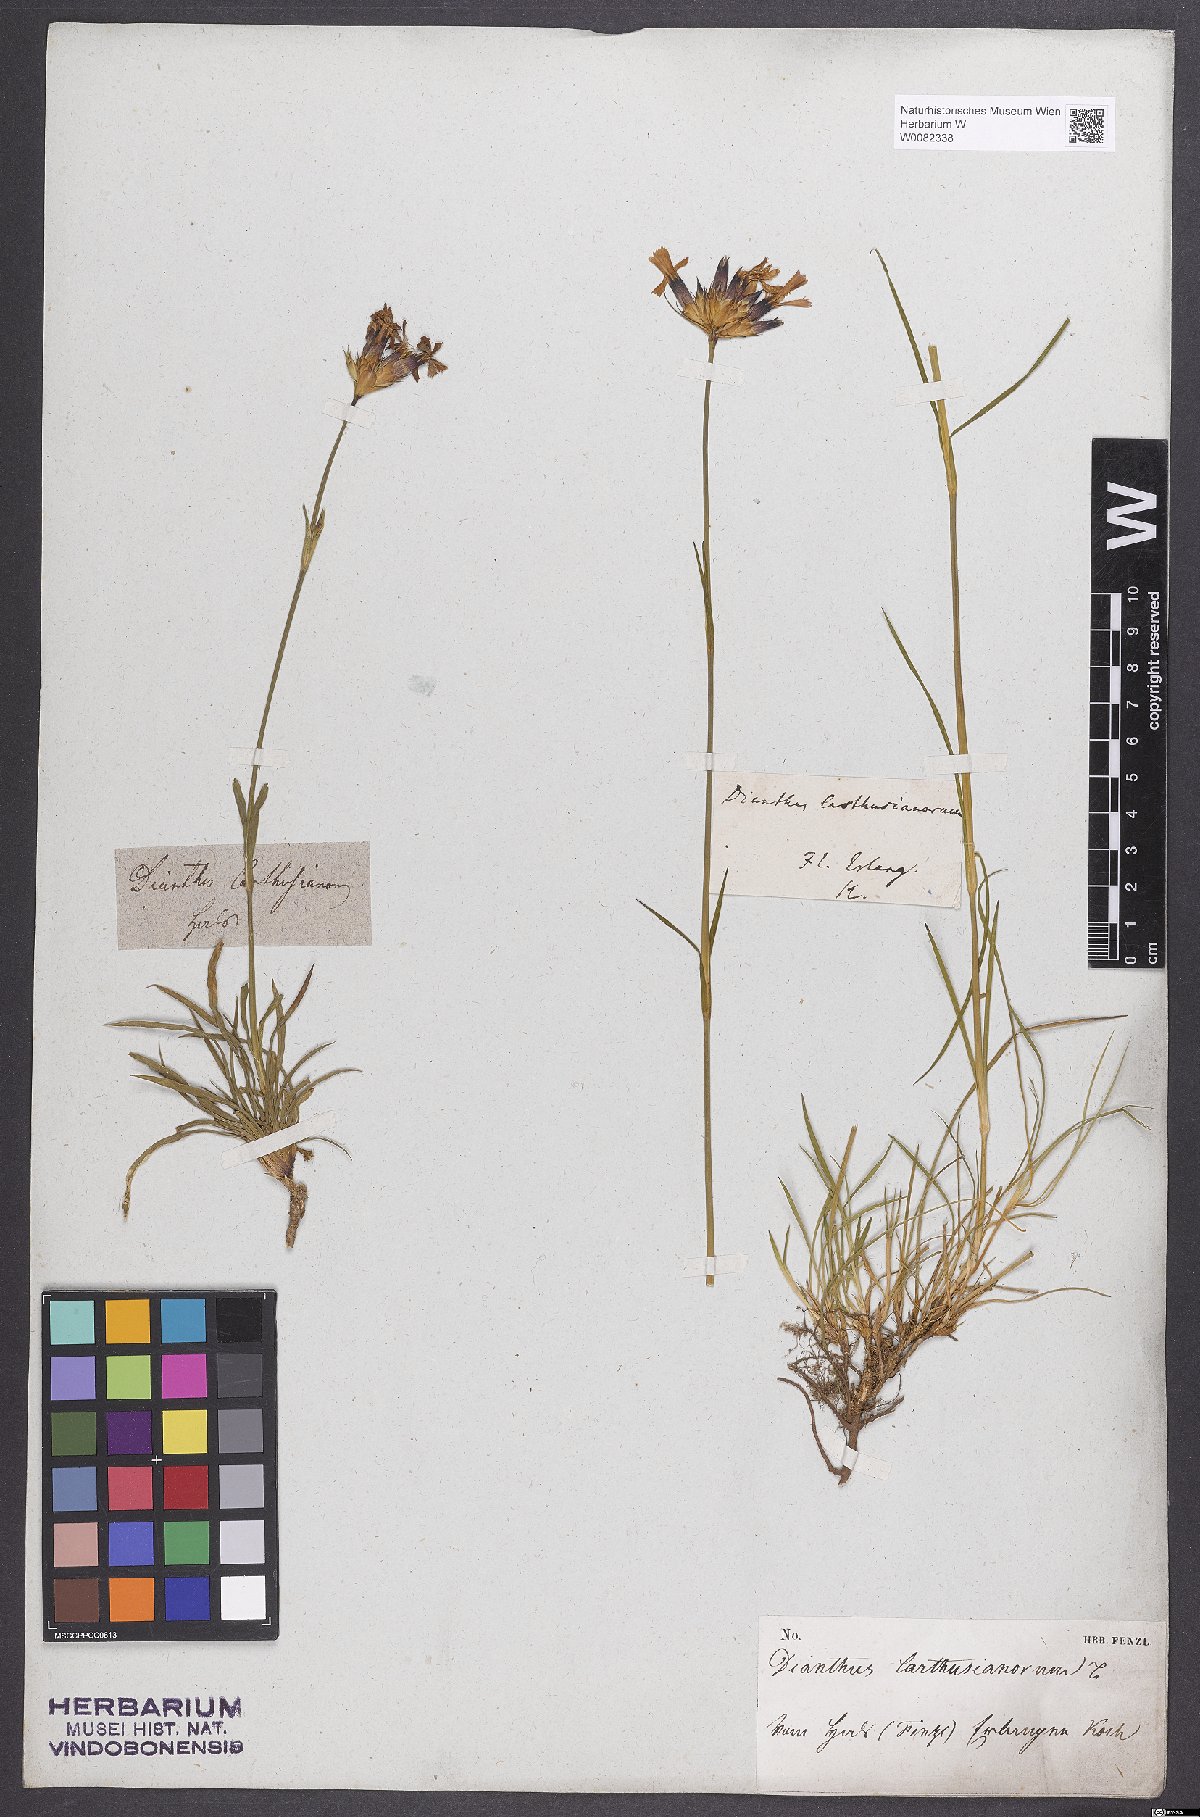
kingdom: Plantae
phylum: Tracheophyta
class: Magnoliopsida
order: Caryophyllales
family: Caryophyllaceae
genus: Dianthus
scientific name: Dianthus carthusianorum
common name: Carthusian pink
